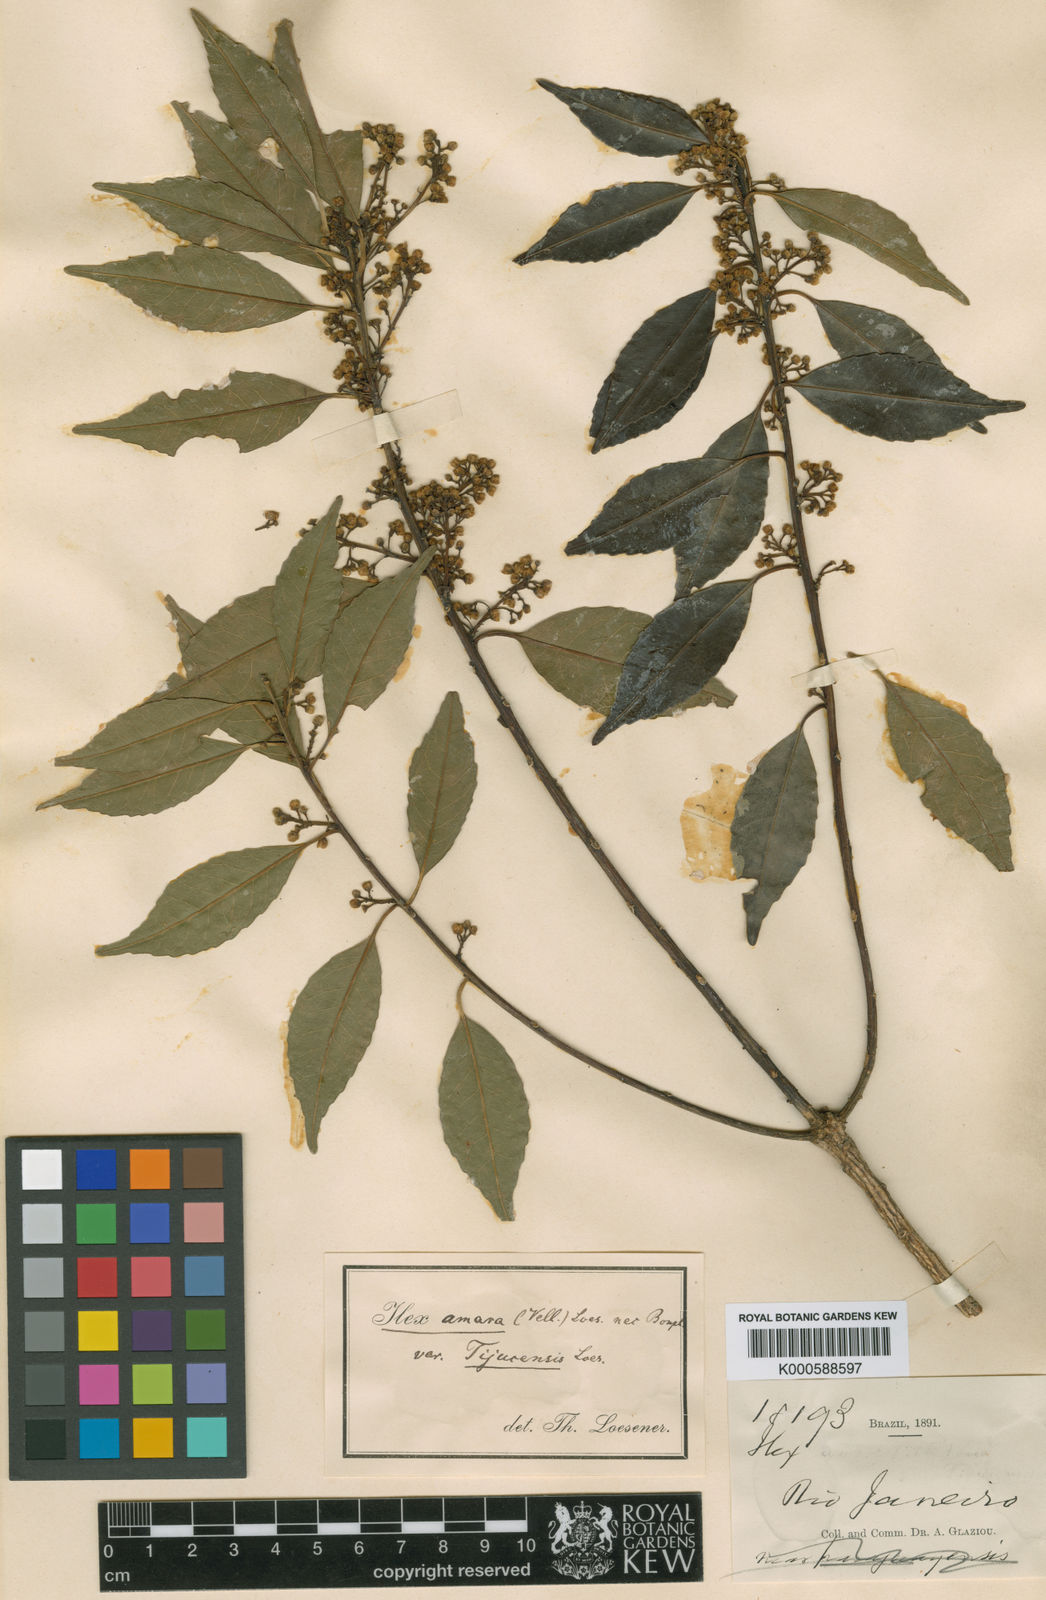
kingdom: Plantae
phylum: Tracheophyta
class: Magnoliopsida
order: Aquifoliales
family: Aquifoliaceae
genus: Ilex
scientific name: Ilex
